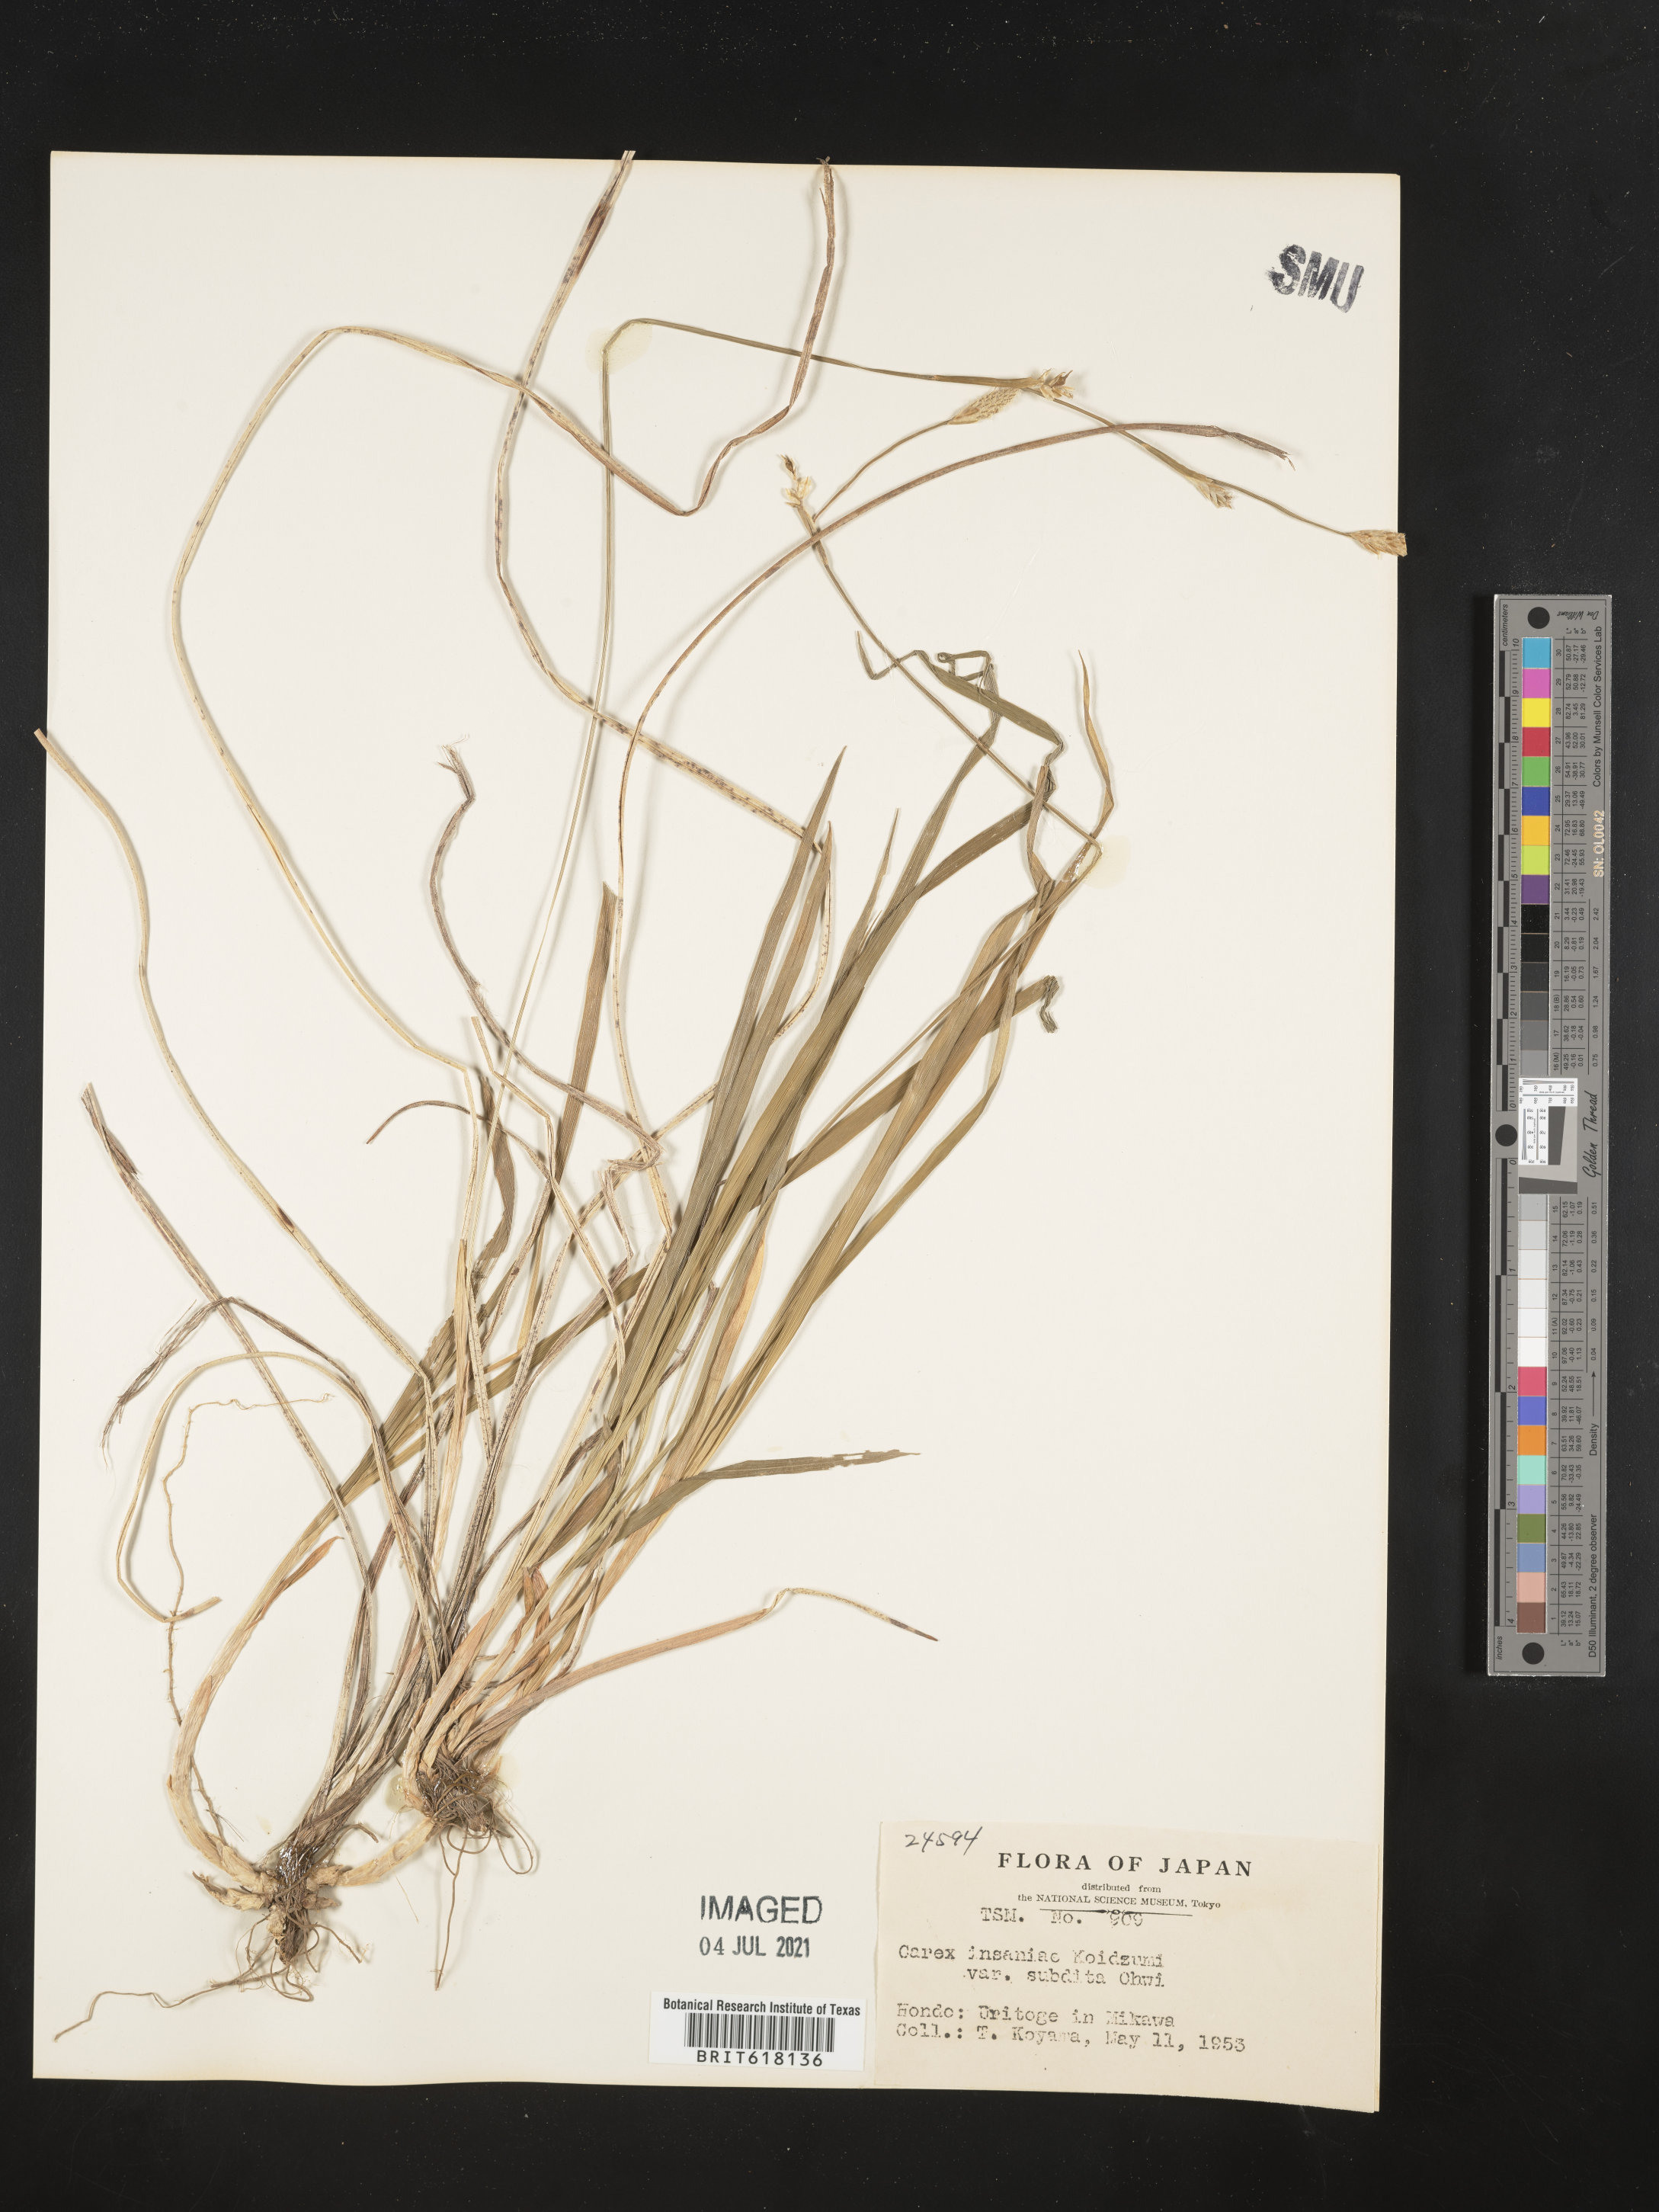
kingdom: Plantae
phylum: Tracheophyta
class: Liliopsida
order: Poales
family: Cyperaceae
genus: Carex
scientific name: Carex insaniae
